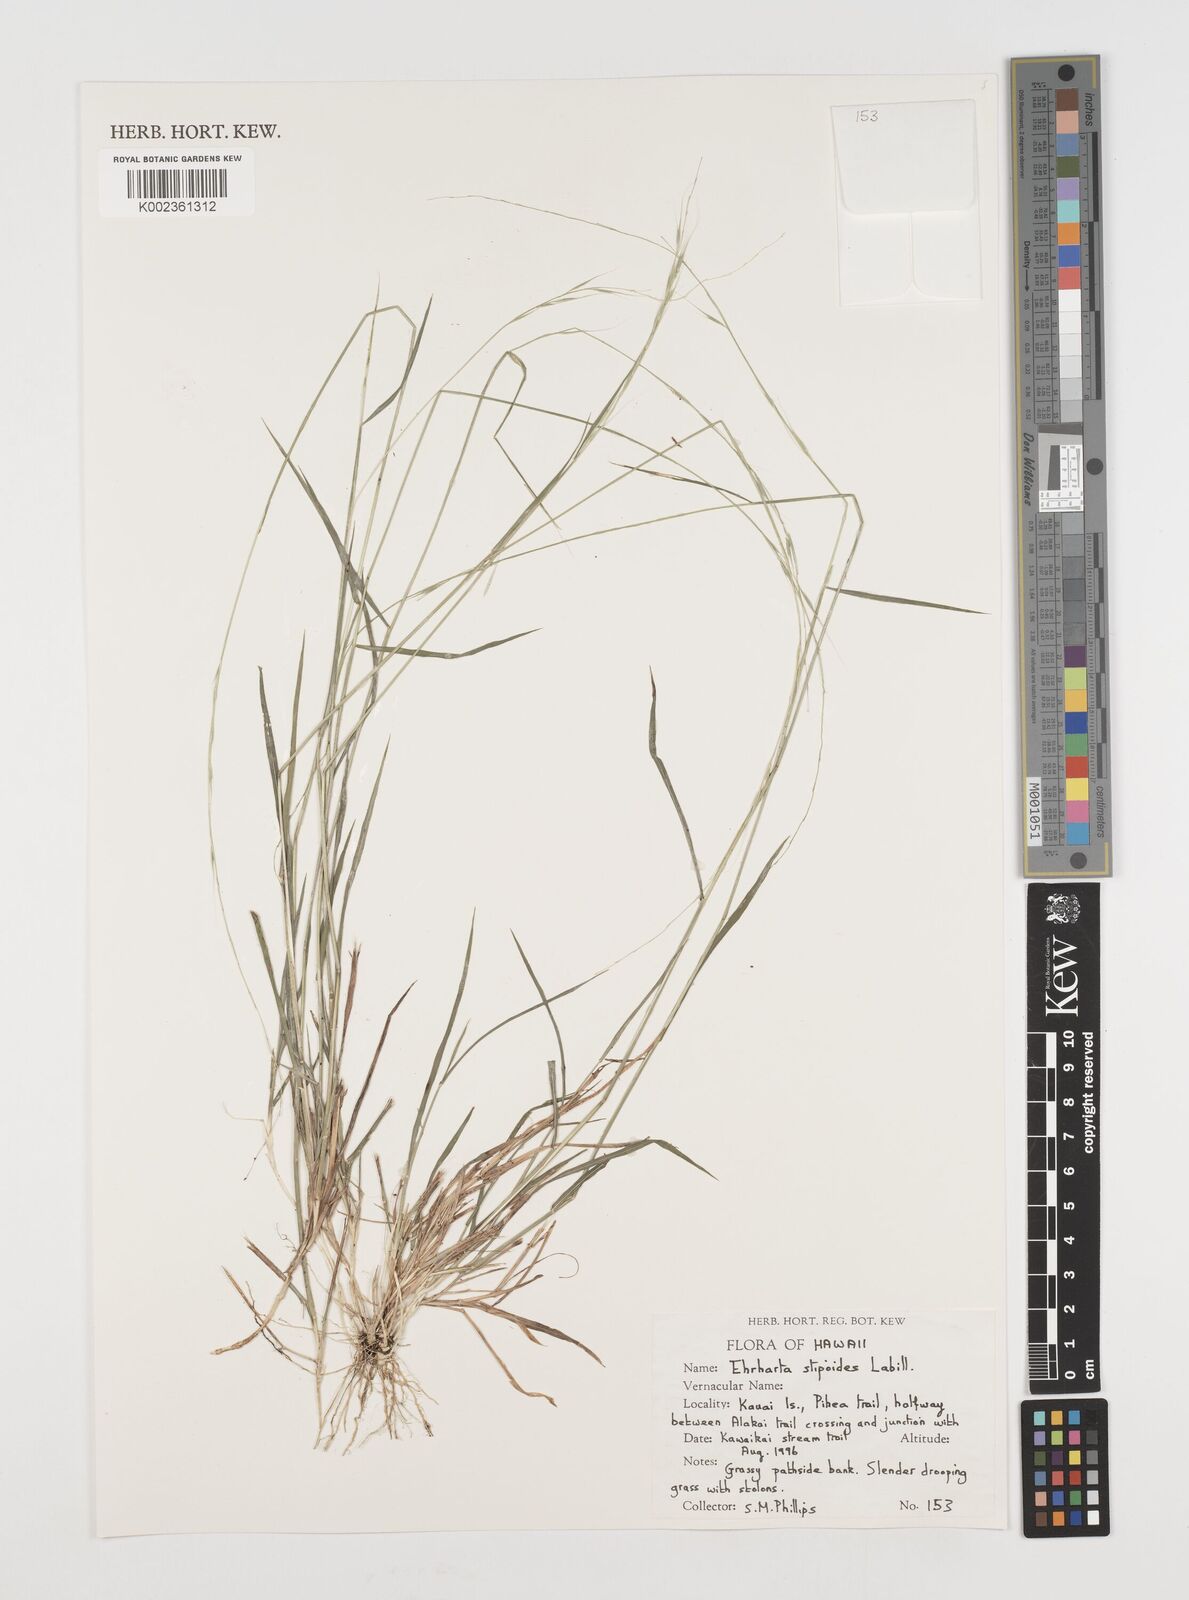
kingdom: Plantae
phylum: Tracheophyta
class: Liliopsida
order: Poales
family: Poaceae
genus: Microlaena
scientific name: Microlaena stipoides
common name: Meadow ricegrass
